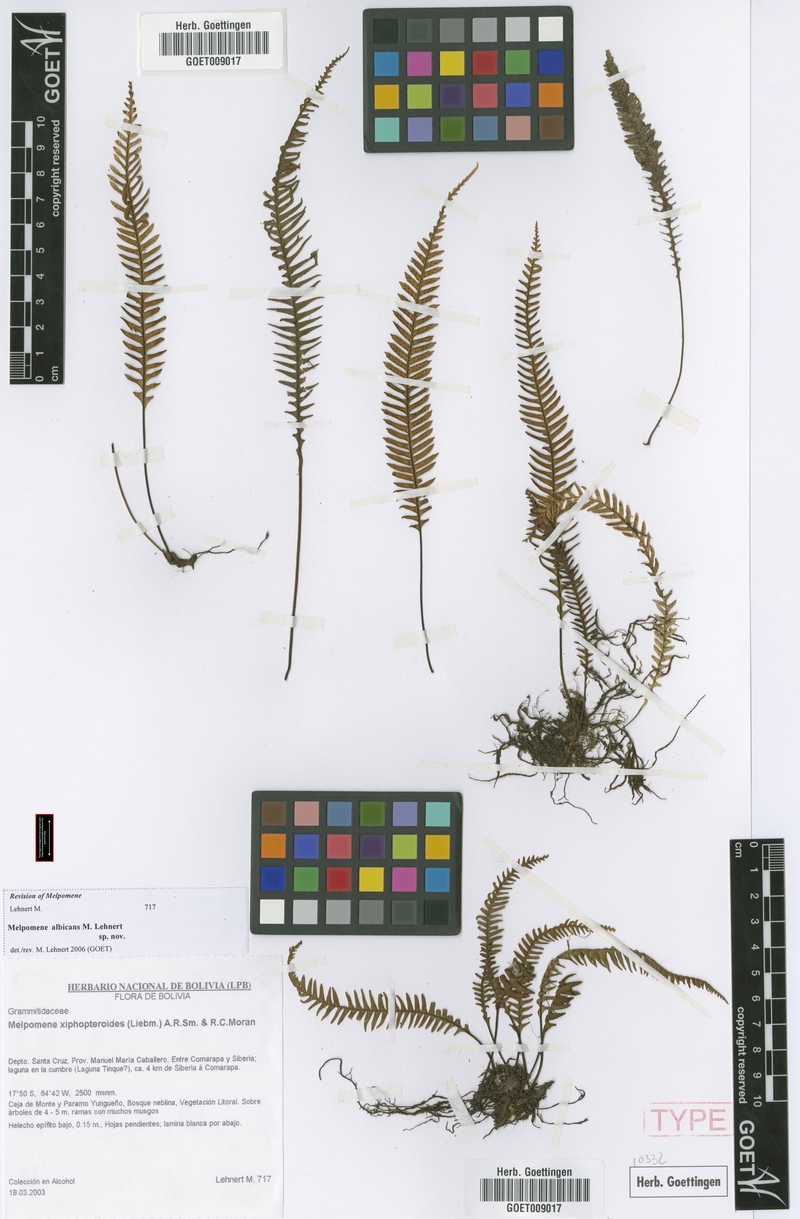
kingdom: Plantae
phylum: Tracheophyta
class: Polypodiopsida
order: Polypodiales
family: Polypodiaceae
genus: Melpomene
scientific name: Melpomene albicans
